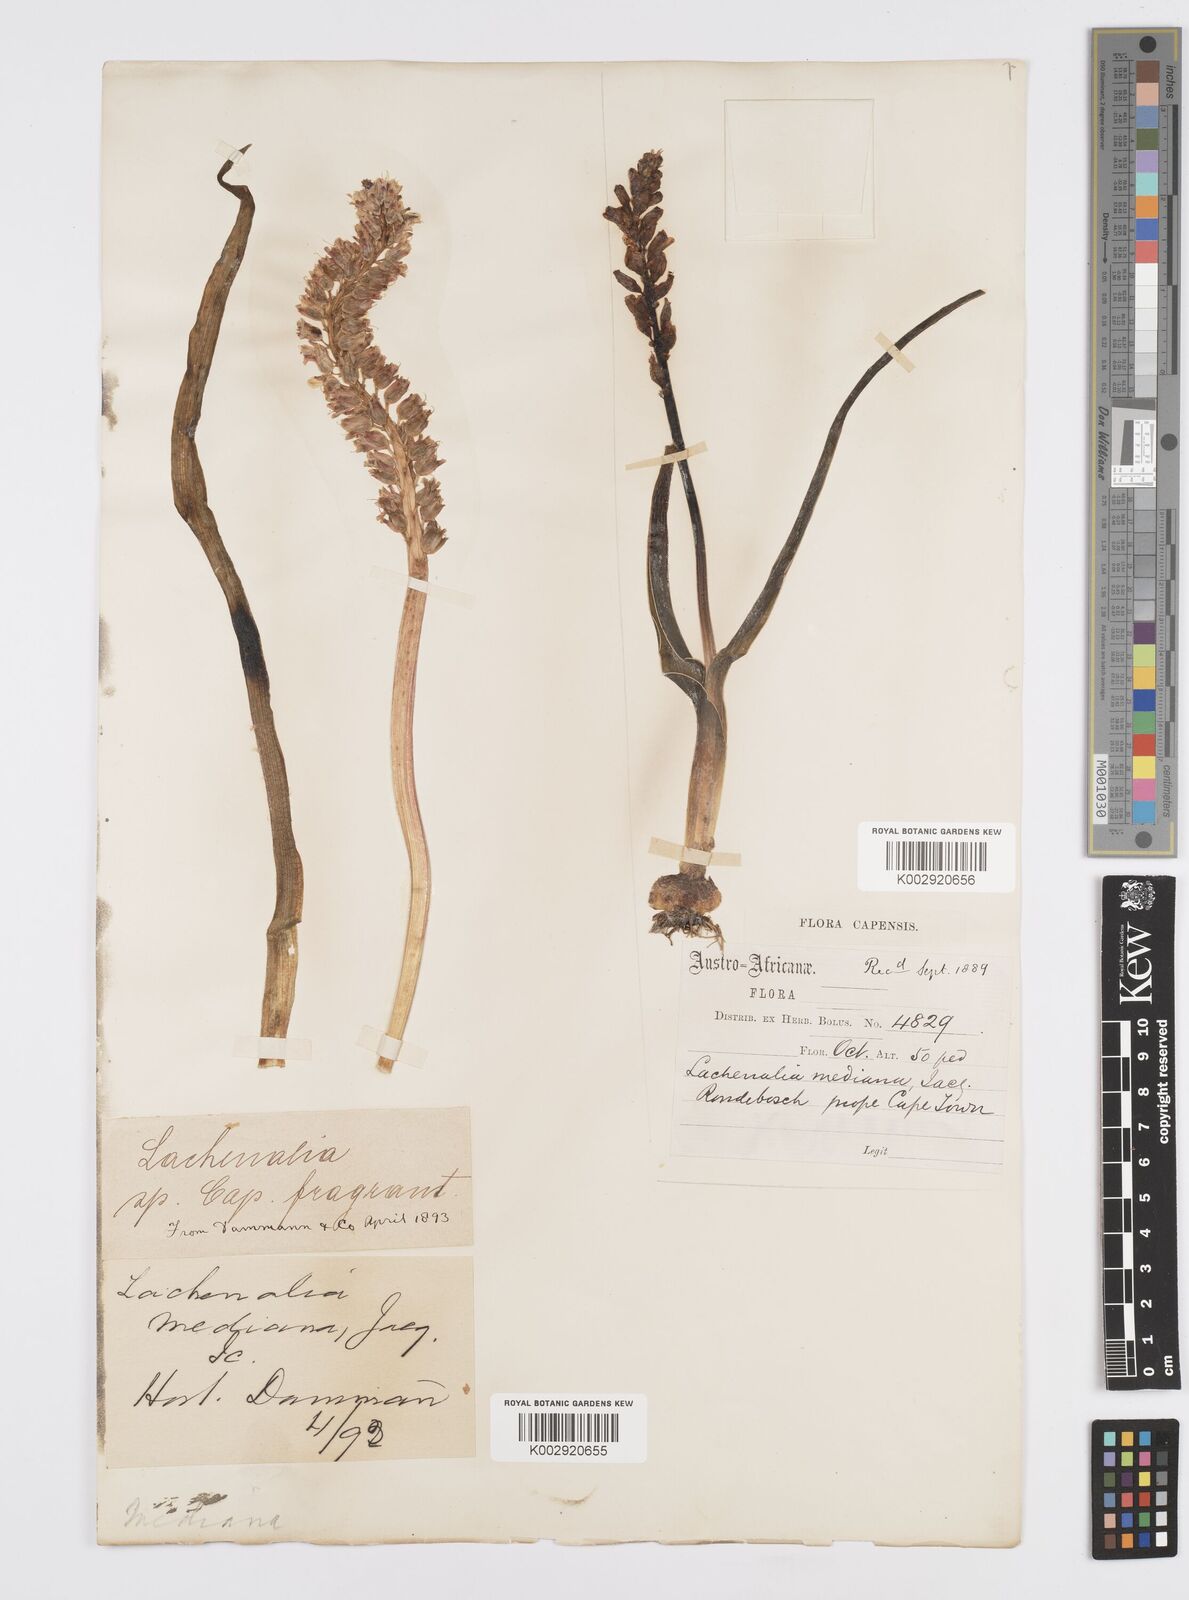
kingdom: Plantae
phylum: Tracheophyta
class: Liliopsida
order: Asparagales
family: Asparagaceae
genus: Lachenalia
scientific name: Lachenalia mediana
